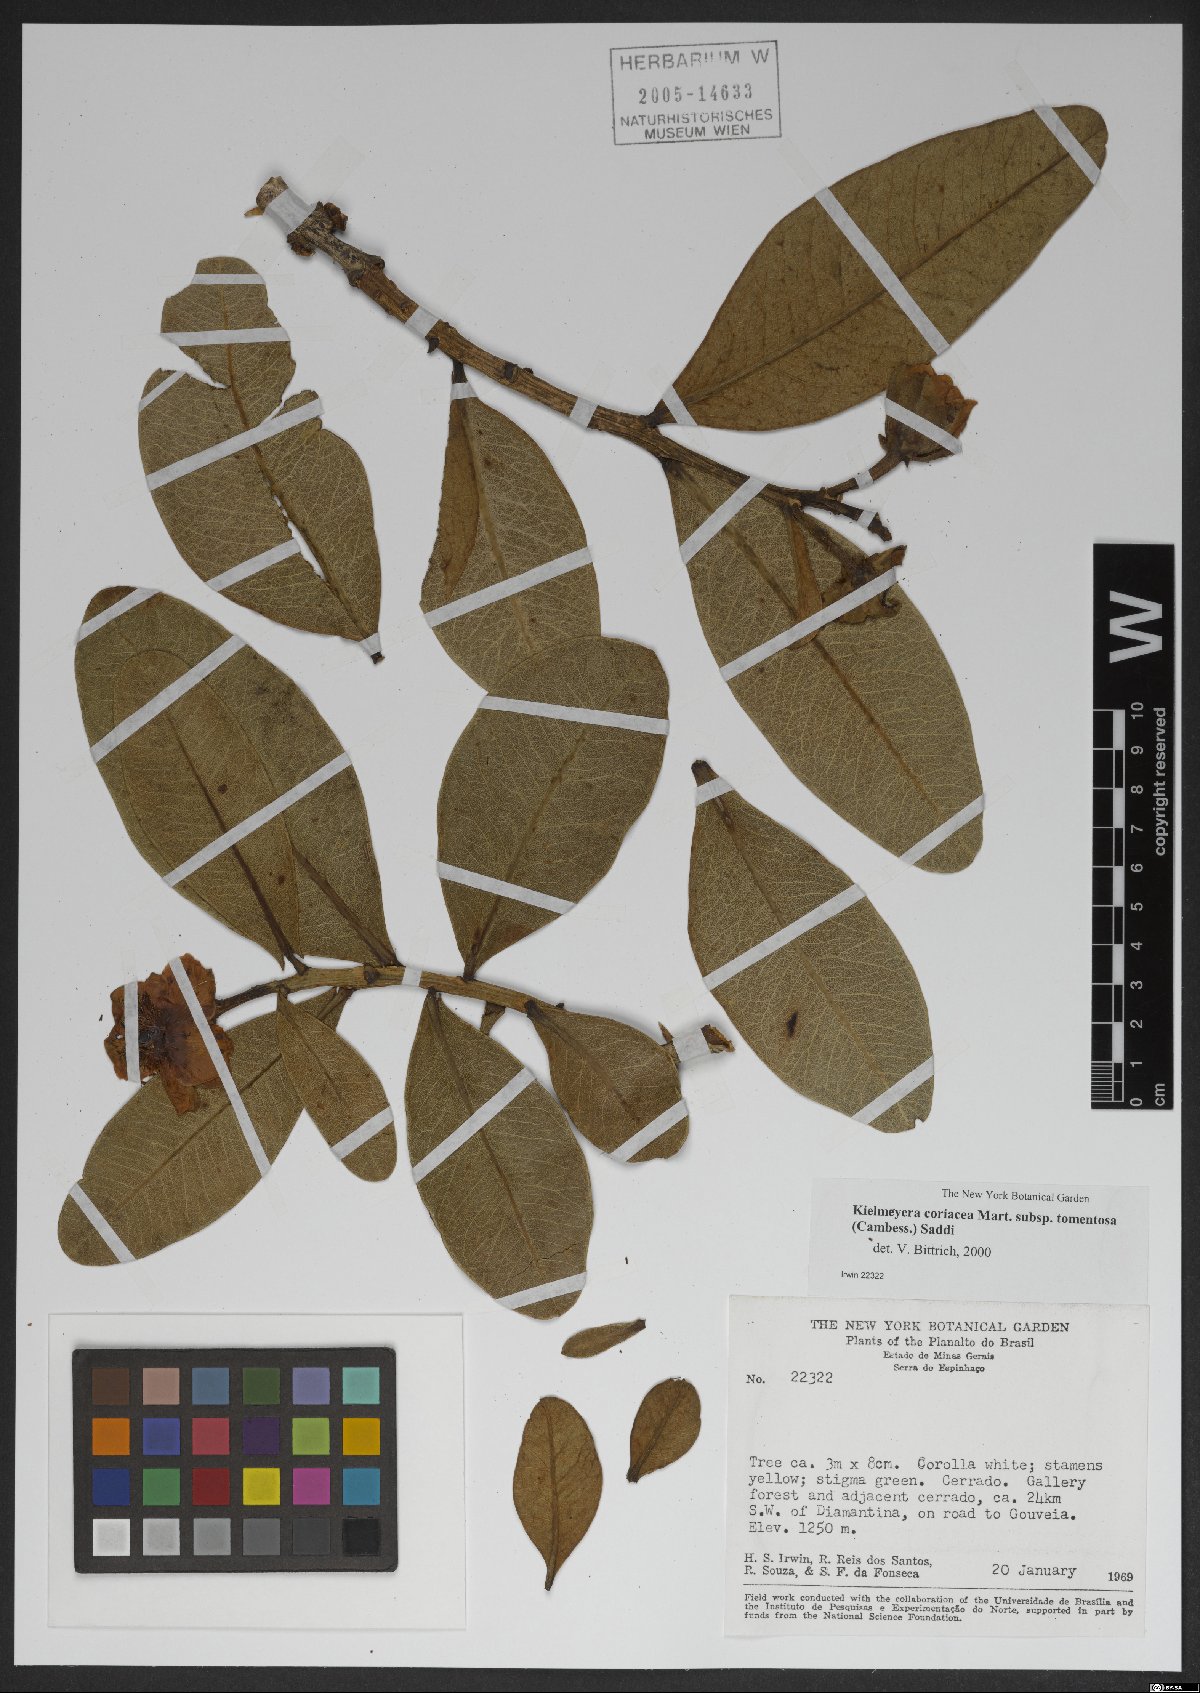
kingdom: Plantae
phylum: Tracheophyta
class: Magnoliopsida
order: Malpighiales
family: Calophyllaceae
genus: Kielmeyera
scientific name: Kielmeyera tomentosa
